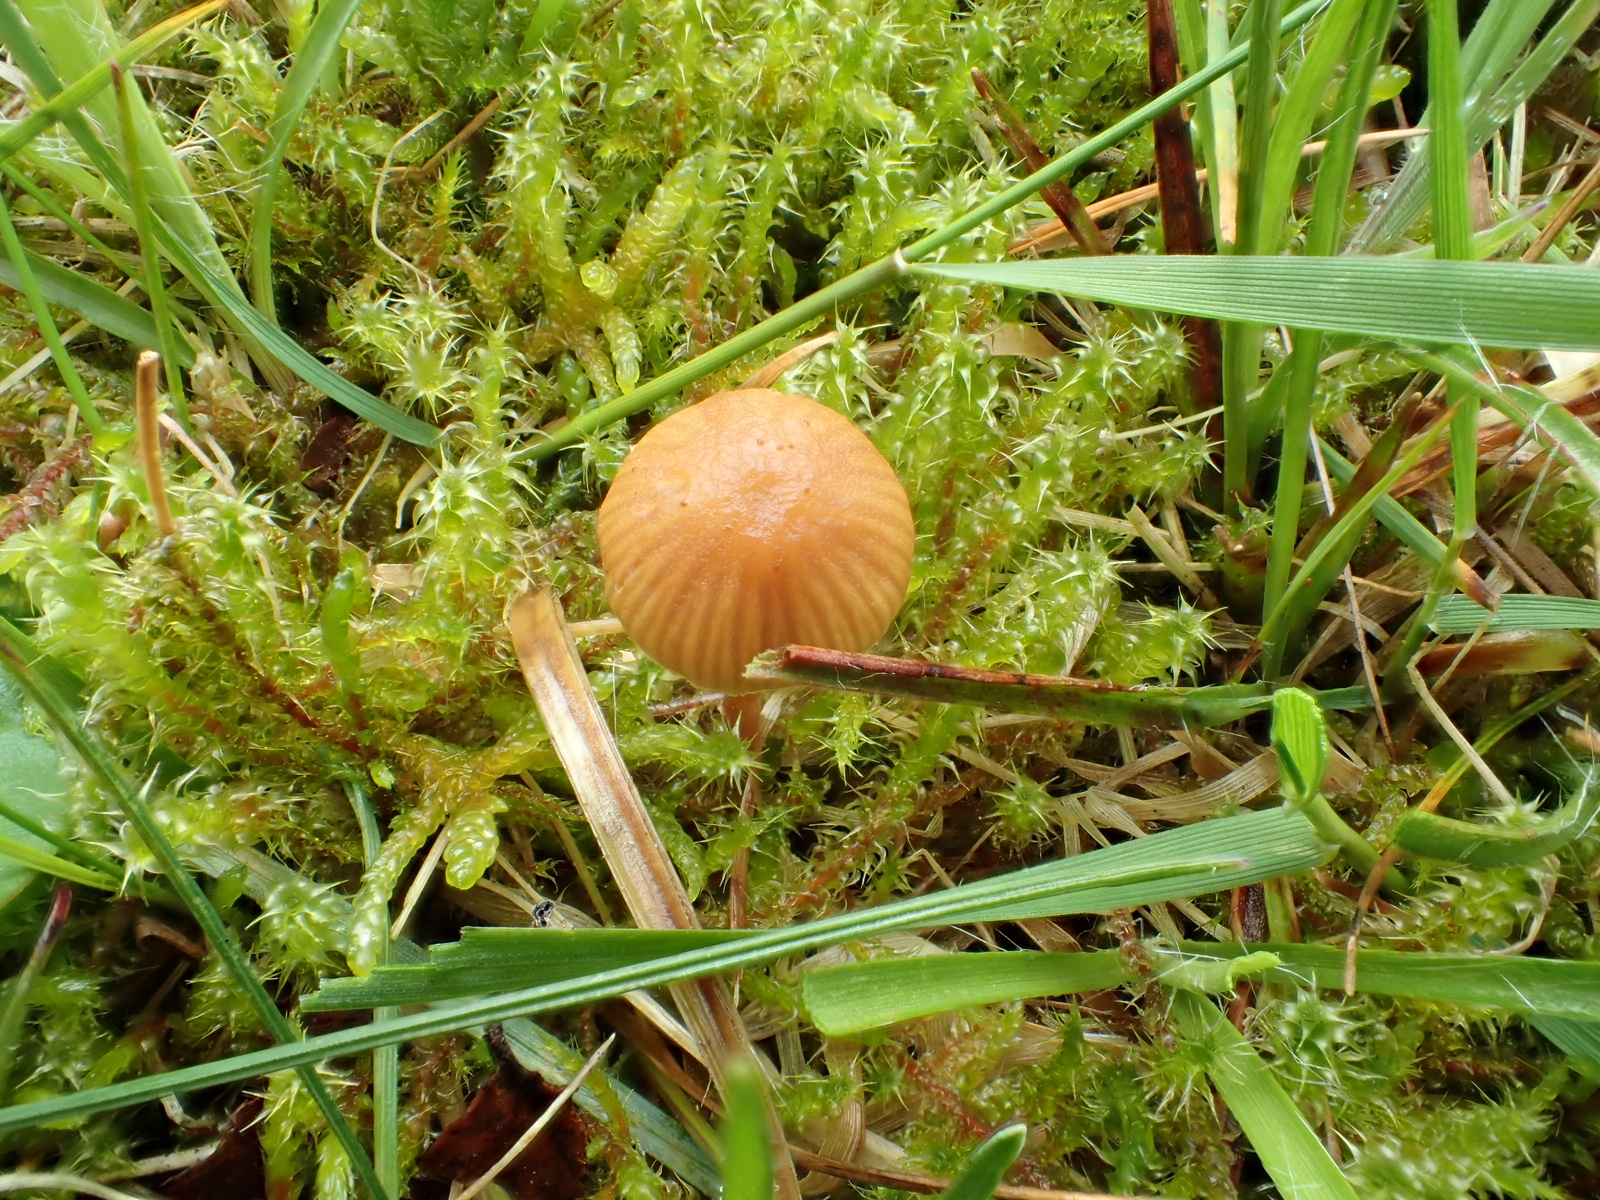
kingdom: Fungi
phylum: Basidiomycota
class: Agaricomycetes
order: Agaricales
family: Hymenogastraceae
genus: Galerina
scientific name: Galerina
